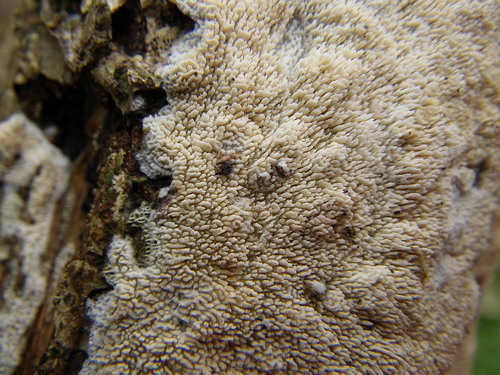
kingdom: Fungi
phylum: Basidiomycota
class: Agaricomycetes
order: Hymenochaetales
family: Schizoporaceae
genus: Xylodon
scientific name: Xylodon subtropicus
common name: labyrint-tandsvamp
